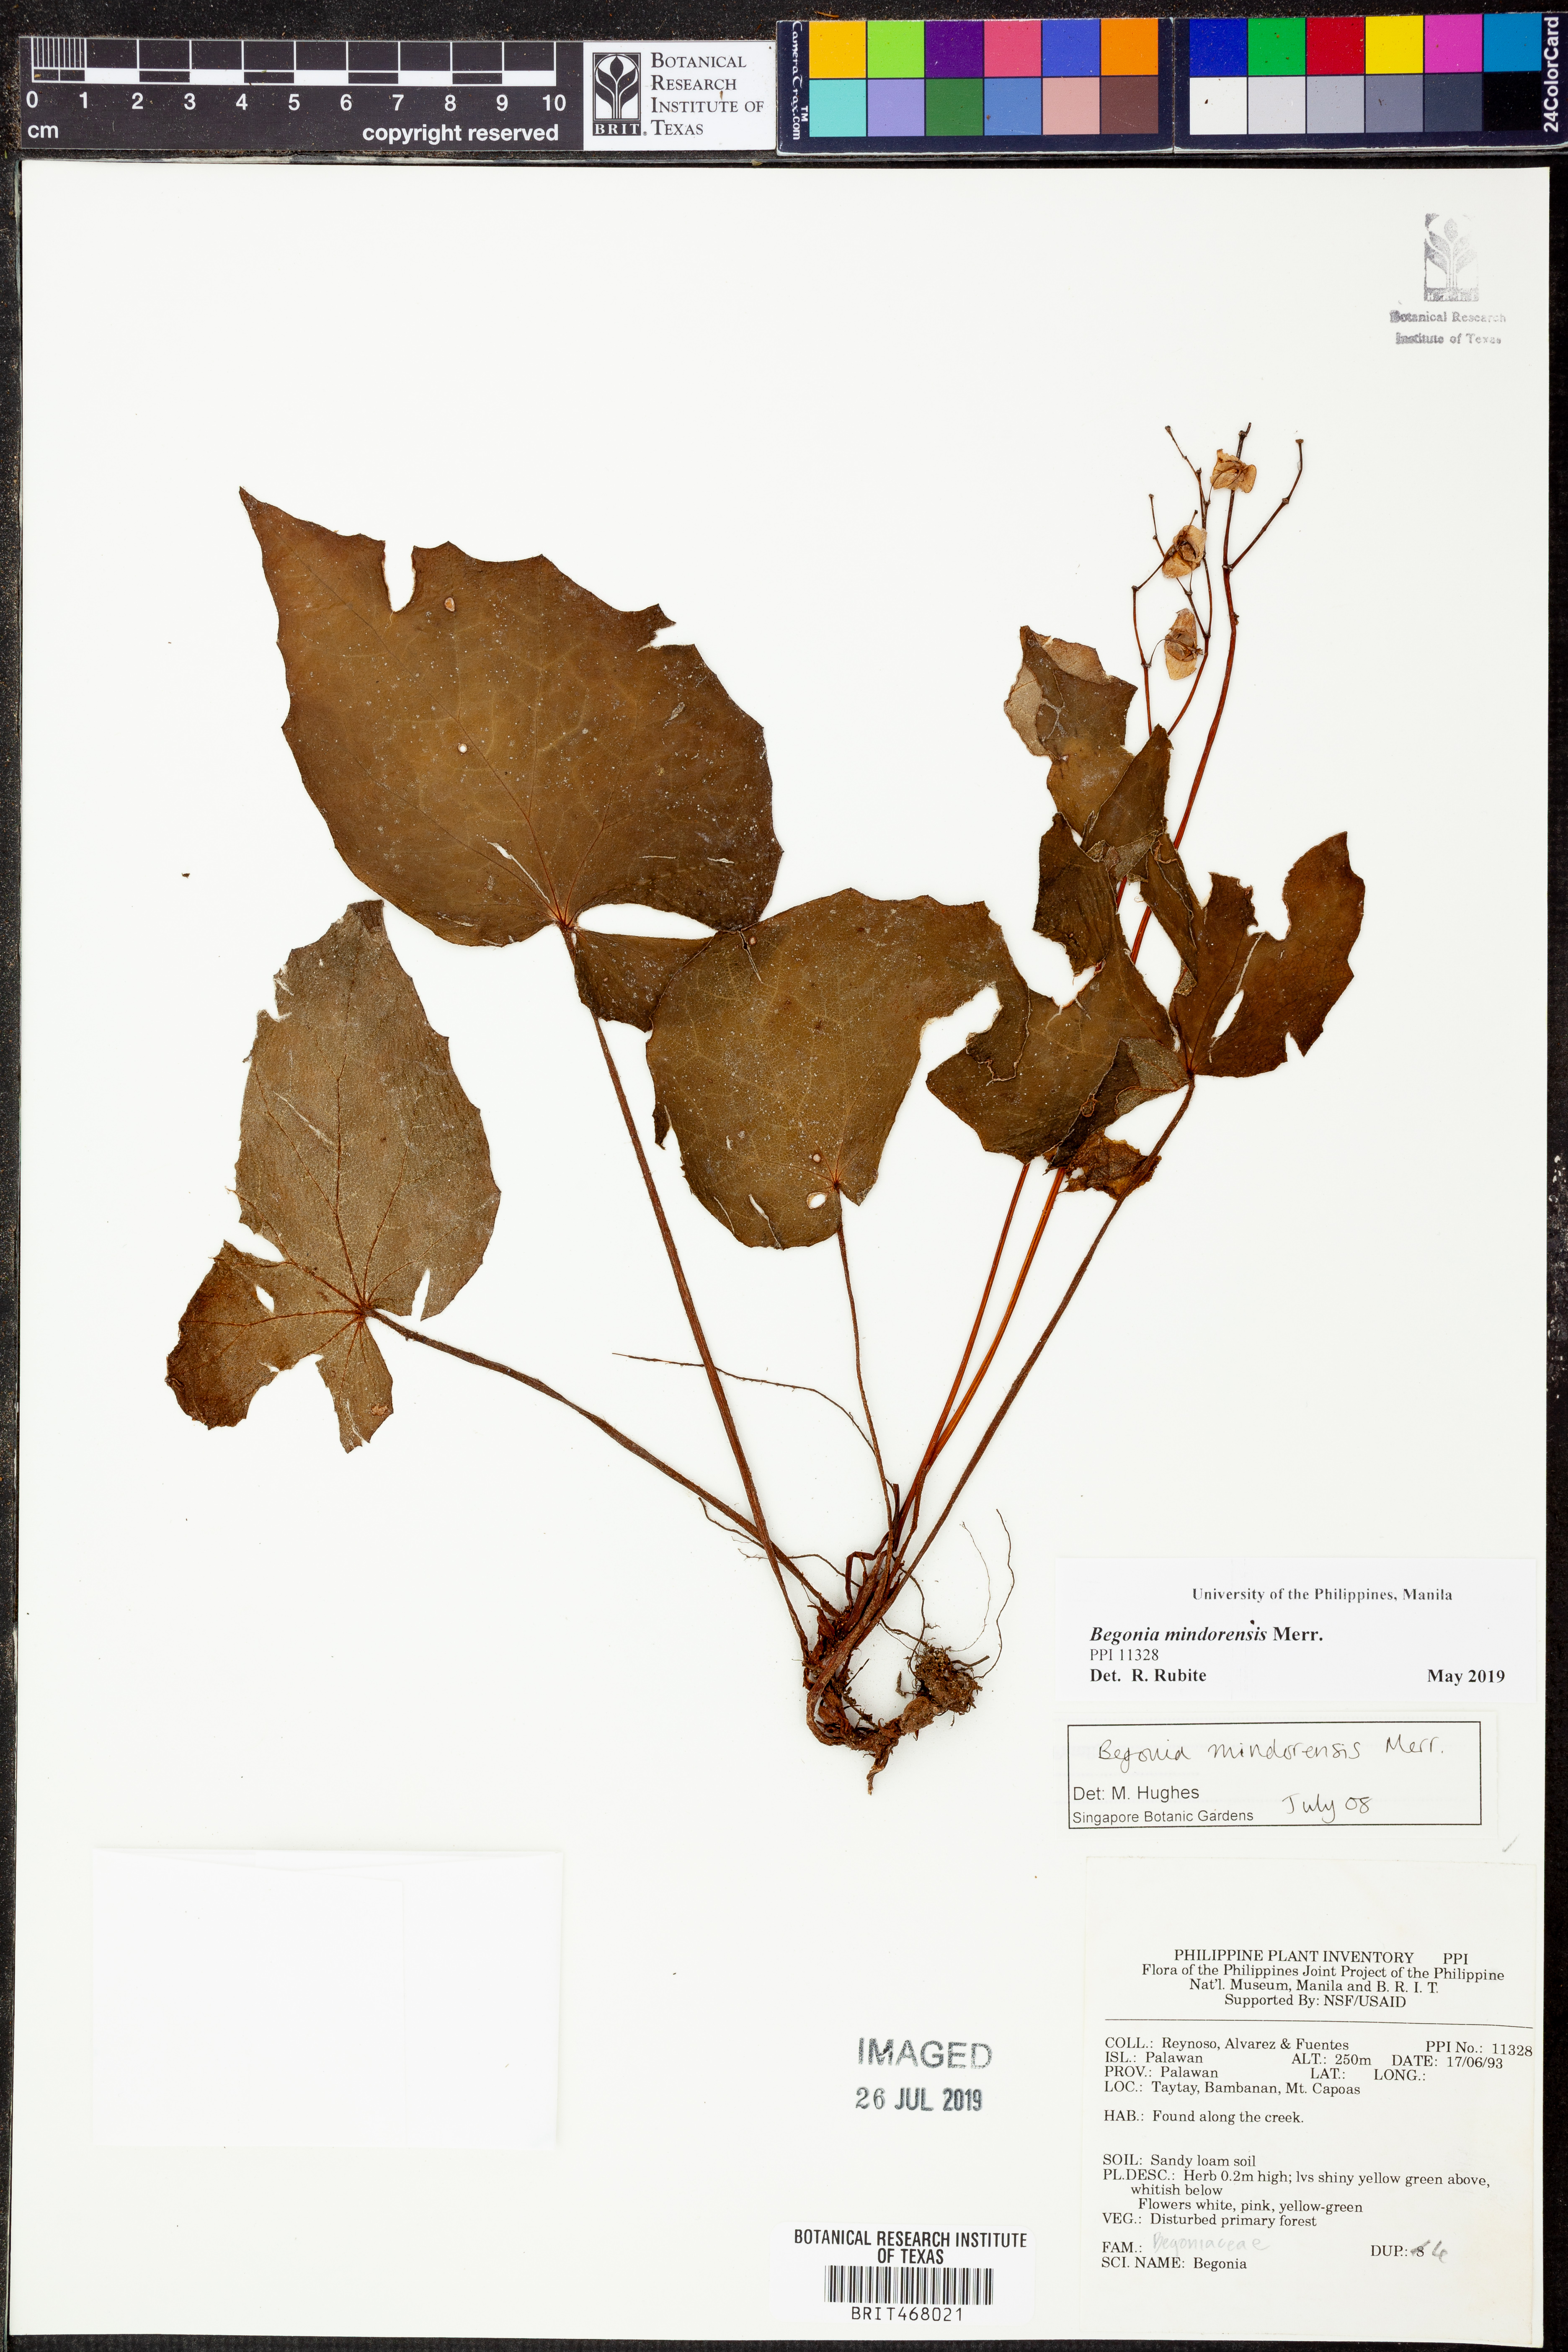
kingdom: Plantae
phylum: Tracheophyta
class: Magnoliopsida
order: Cucurbitales
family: Begoniaceae
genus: Begonia
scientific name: Begonia mindorensis
